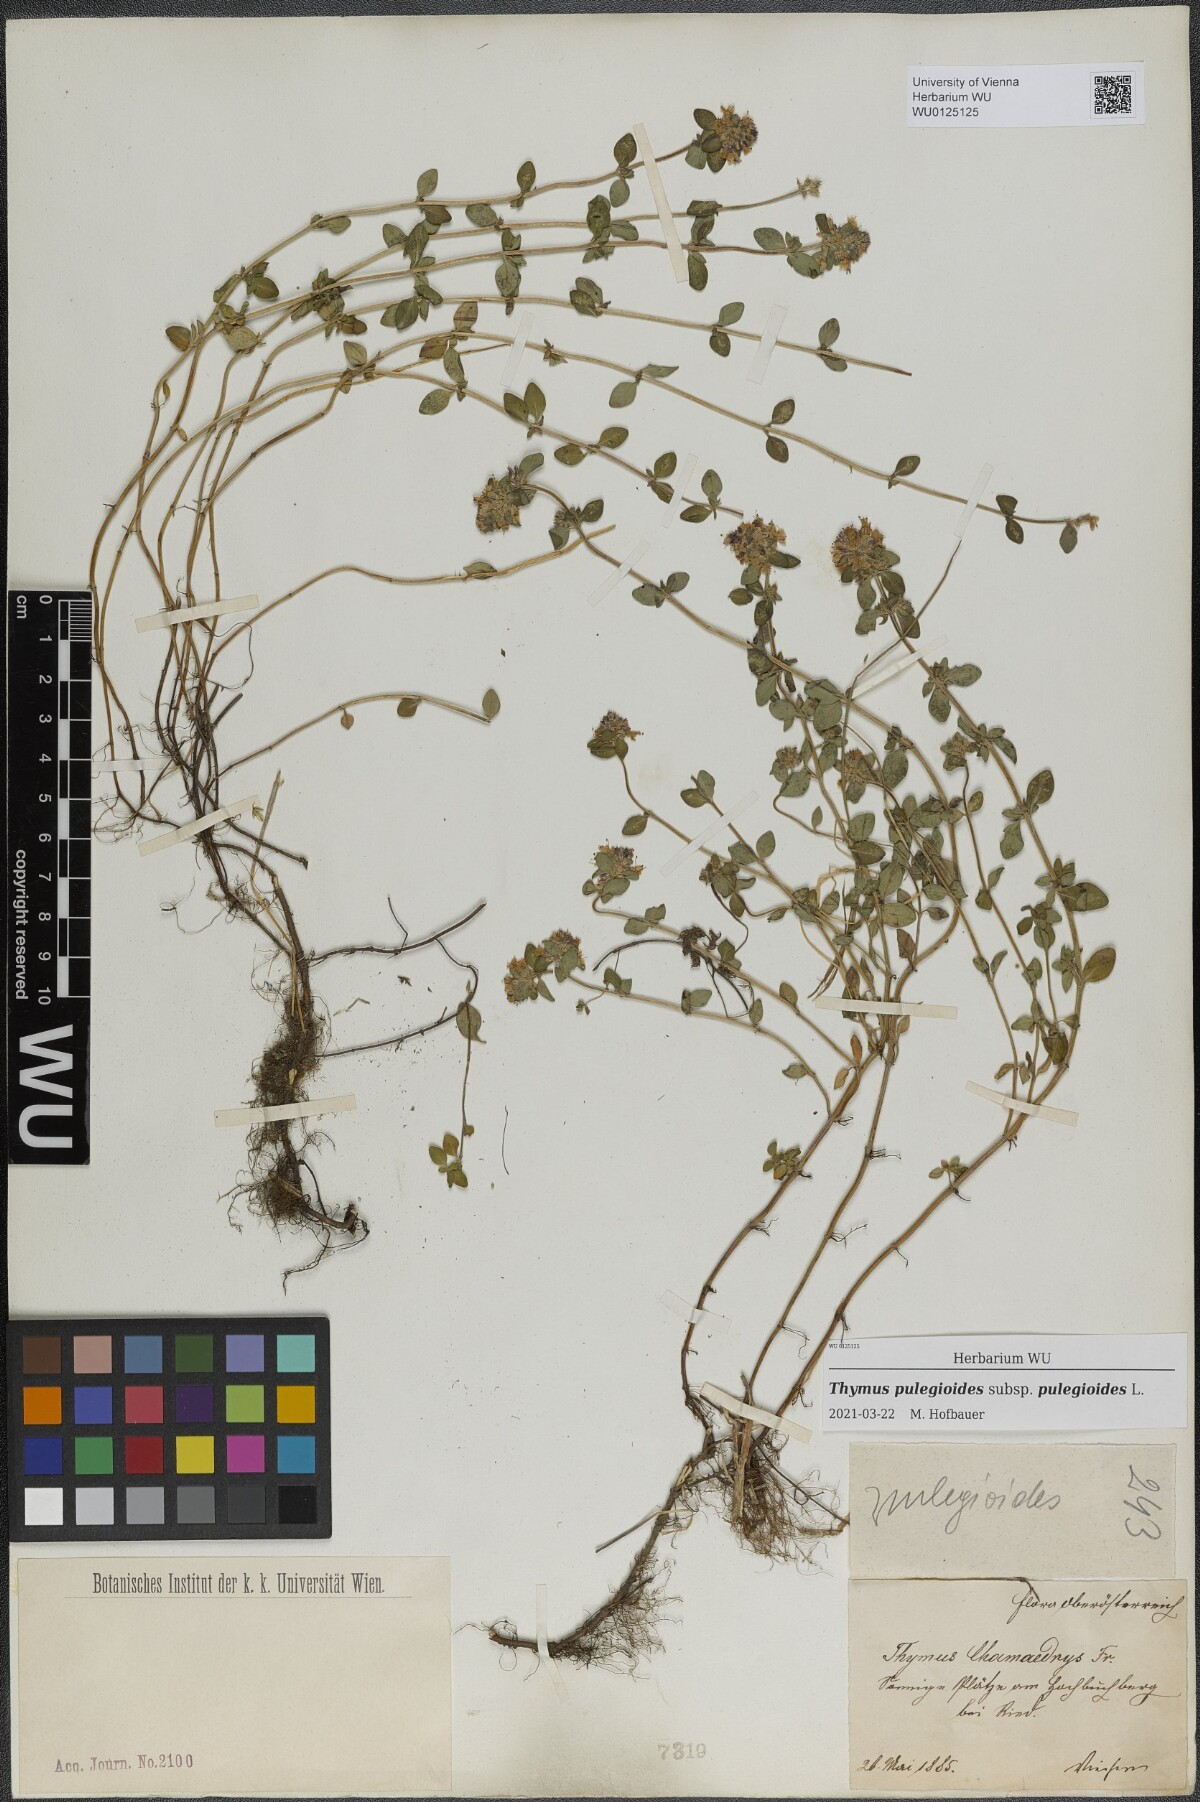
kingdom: Plantae
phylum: Tracheophyta
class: Magnoliopsida
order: Lamiales
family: Lamiaceae
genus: Thymus
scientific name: Thymus pulegioides
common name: Large thyme
